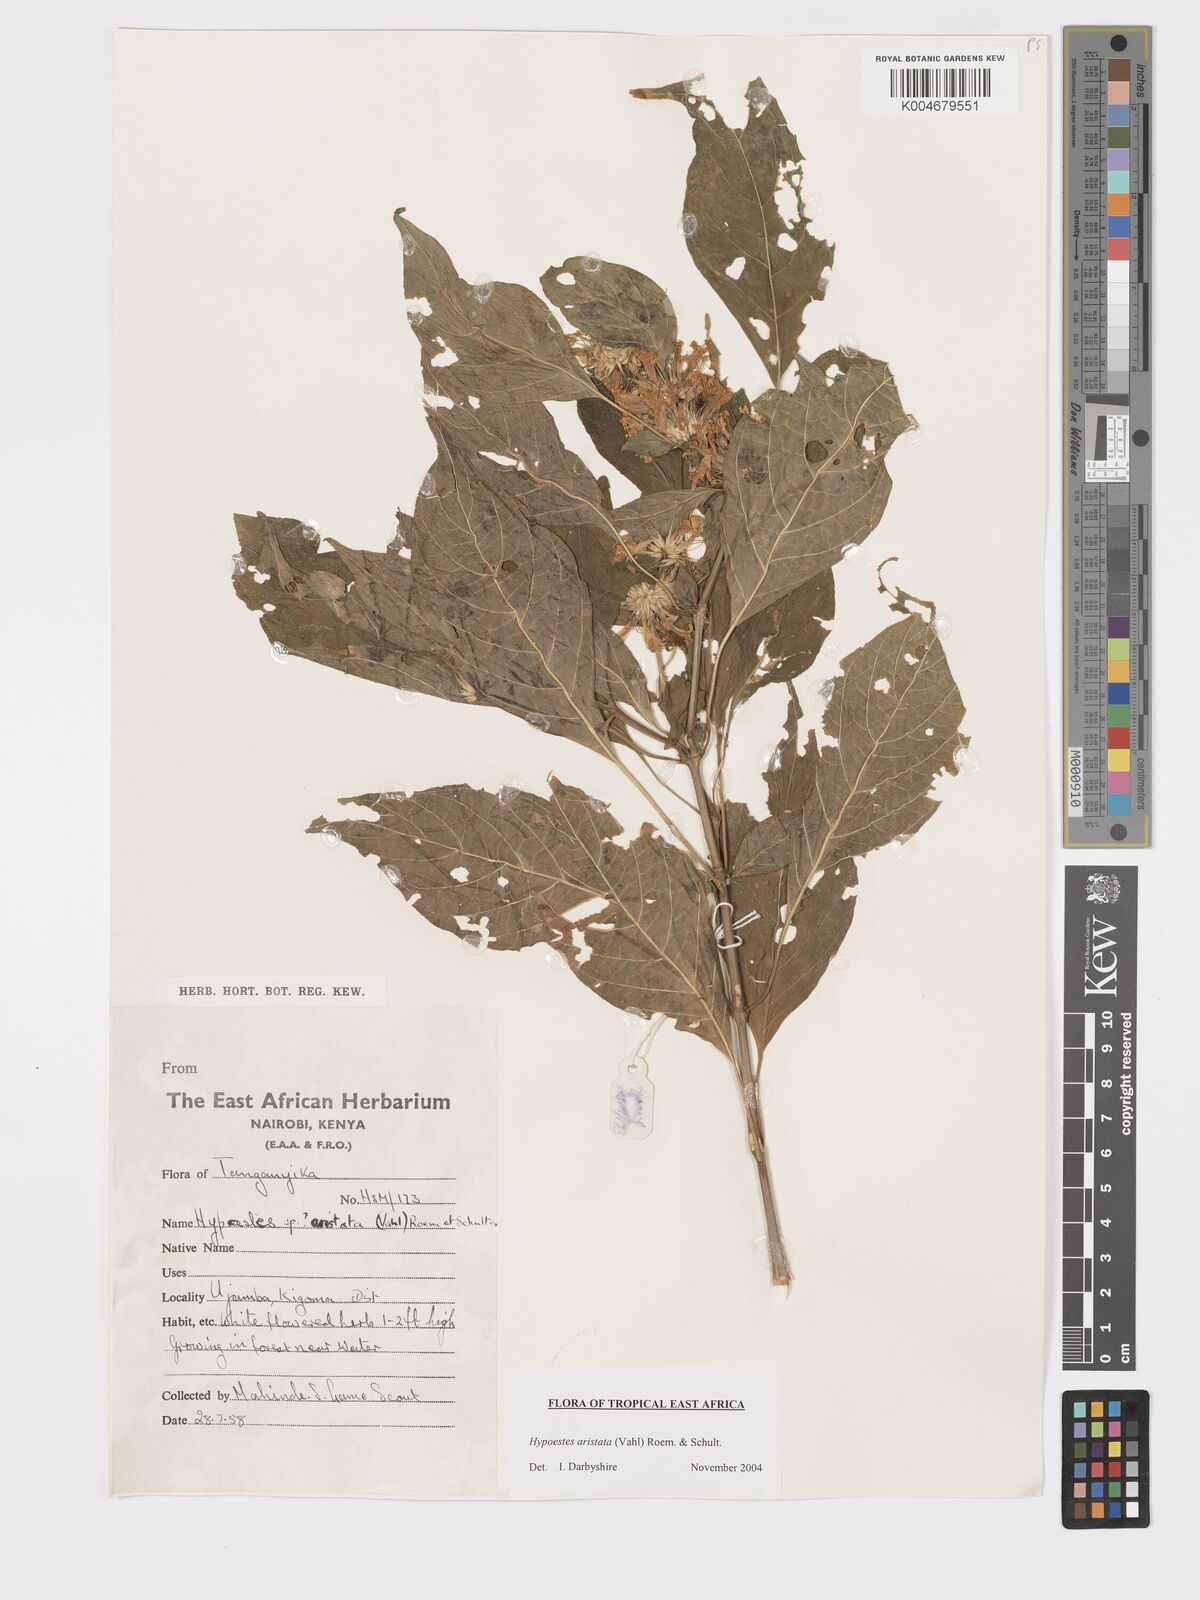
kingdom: Plantae
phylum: Tracheophyta
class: Magnoliopsida
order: Lamiales
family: Acanthaceae
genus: Hypoestes
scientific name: Hypoestes
